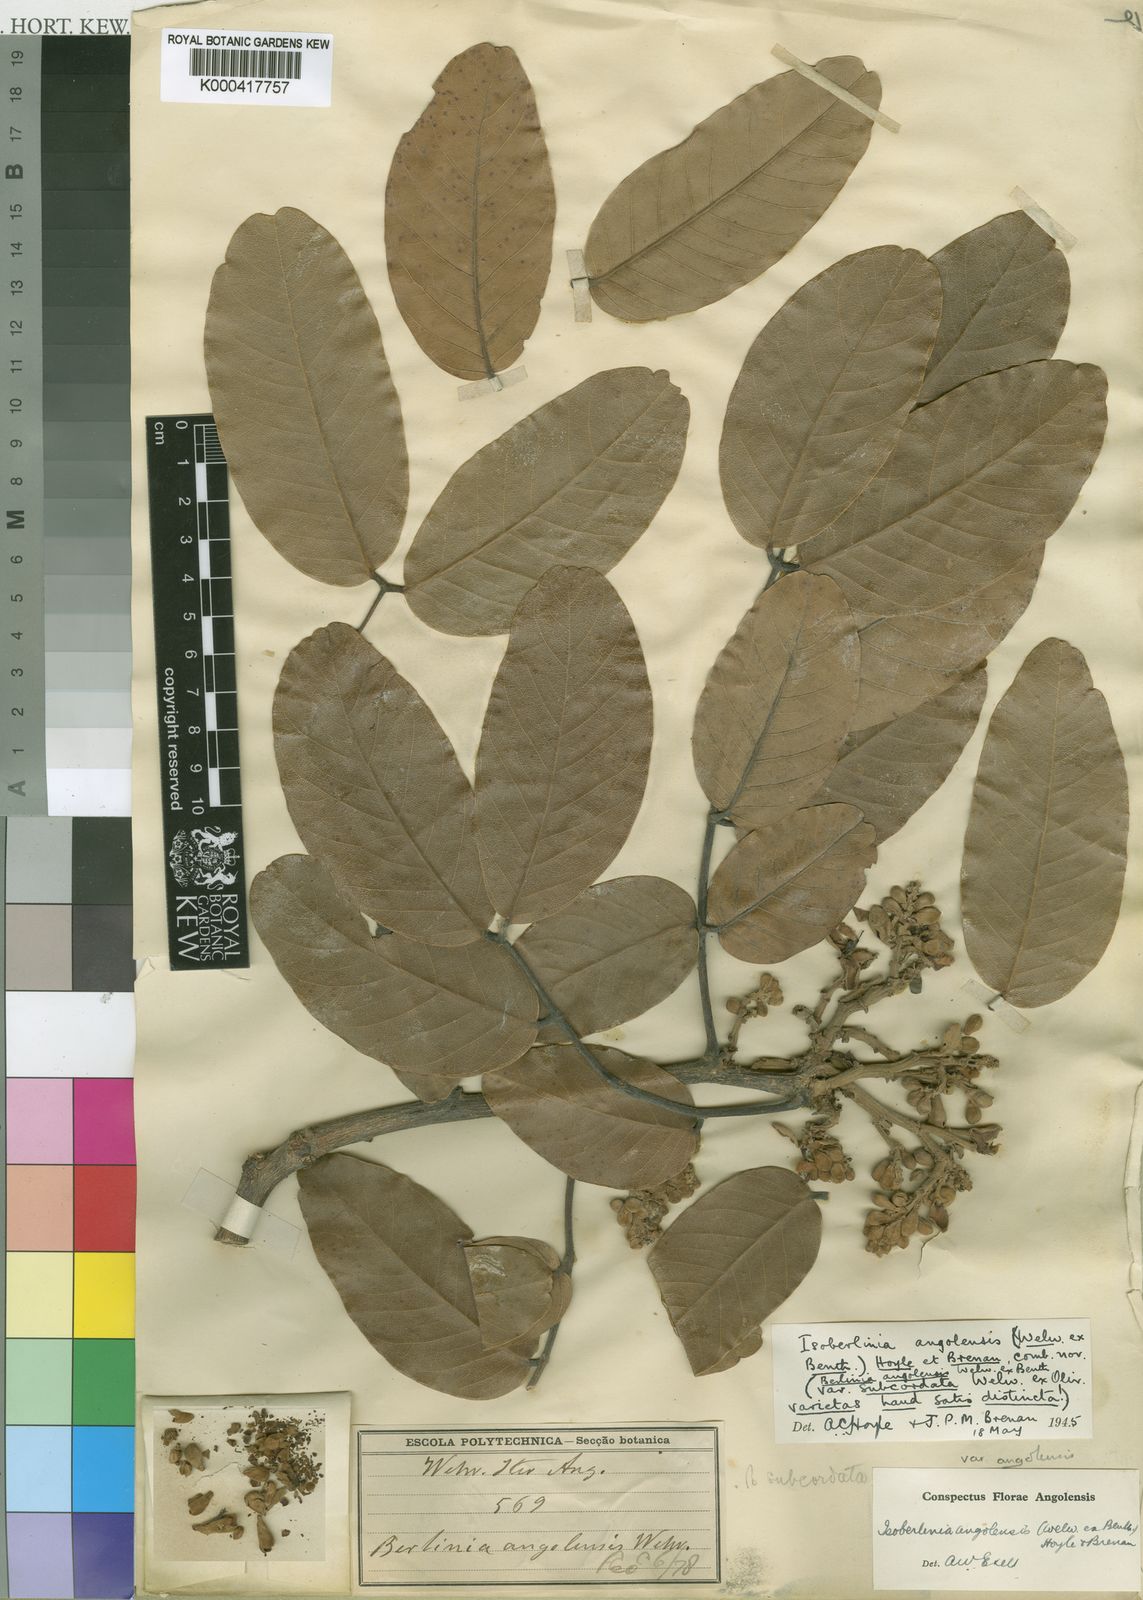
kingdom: Plantae
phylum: Tracheophyta
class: Magnoliopsida
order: Fabales
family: Fabaceae
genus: Isoberlinia
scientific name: Isoberlinia angolensis
